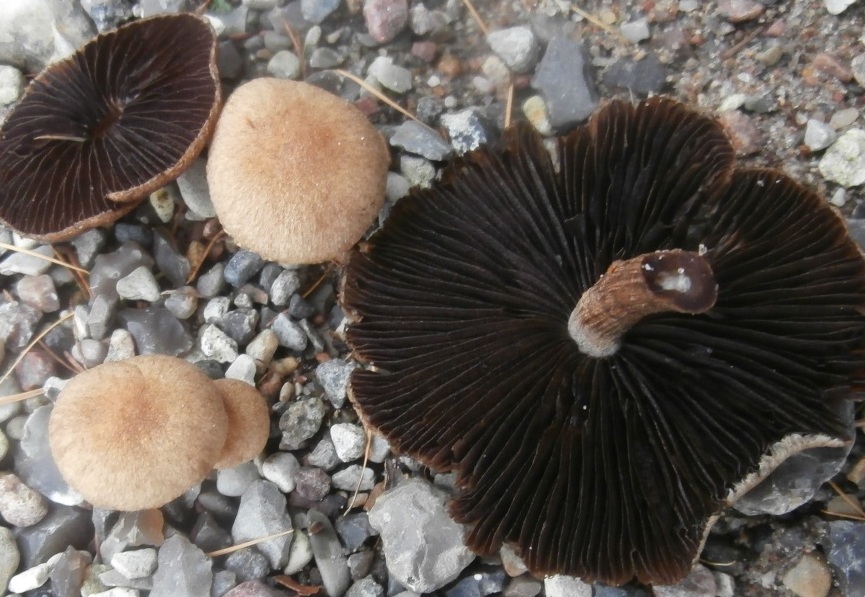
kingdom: Fungi
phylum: Basidiomycota
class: Agaricomycetes
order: Agaricales
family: Psathyrellaceae
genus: Lacrymaria
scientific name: Lacrymaria lacrymabunda
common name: grædende mørkhat
